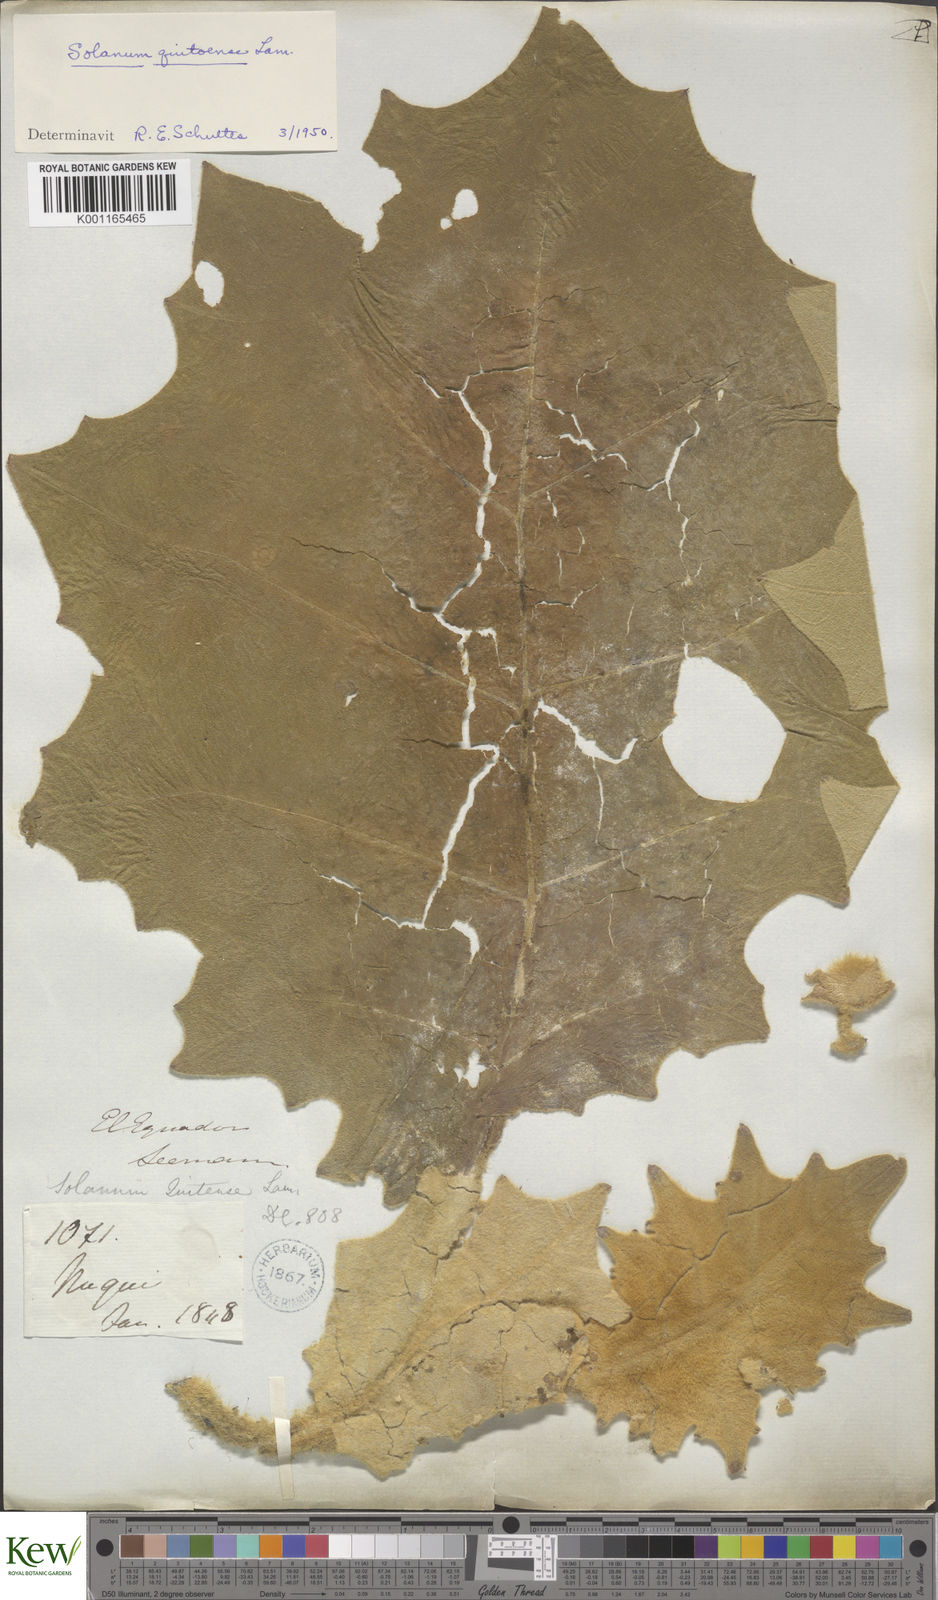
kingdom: Plantae
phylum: Tracheophyta
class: Magnoliopsida
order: Solanales
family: Solanaceae
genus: Solanum
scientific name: Solanum quitoense
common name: Quito-orange
